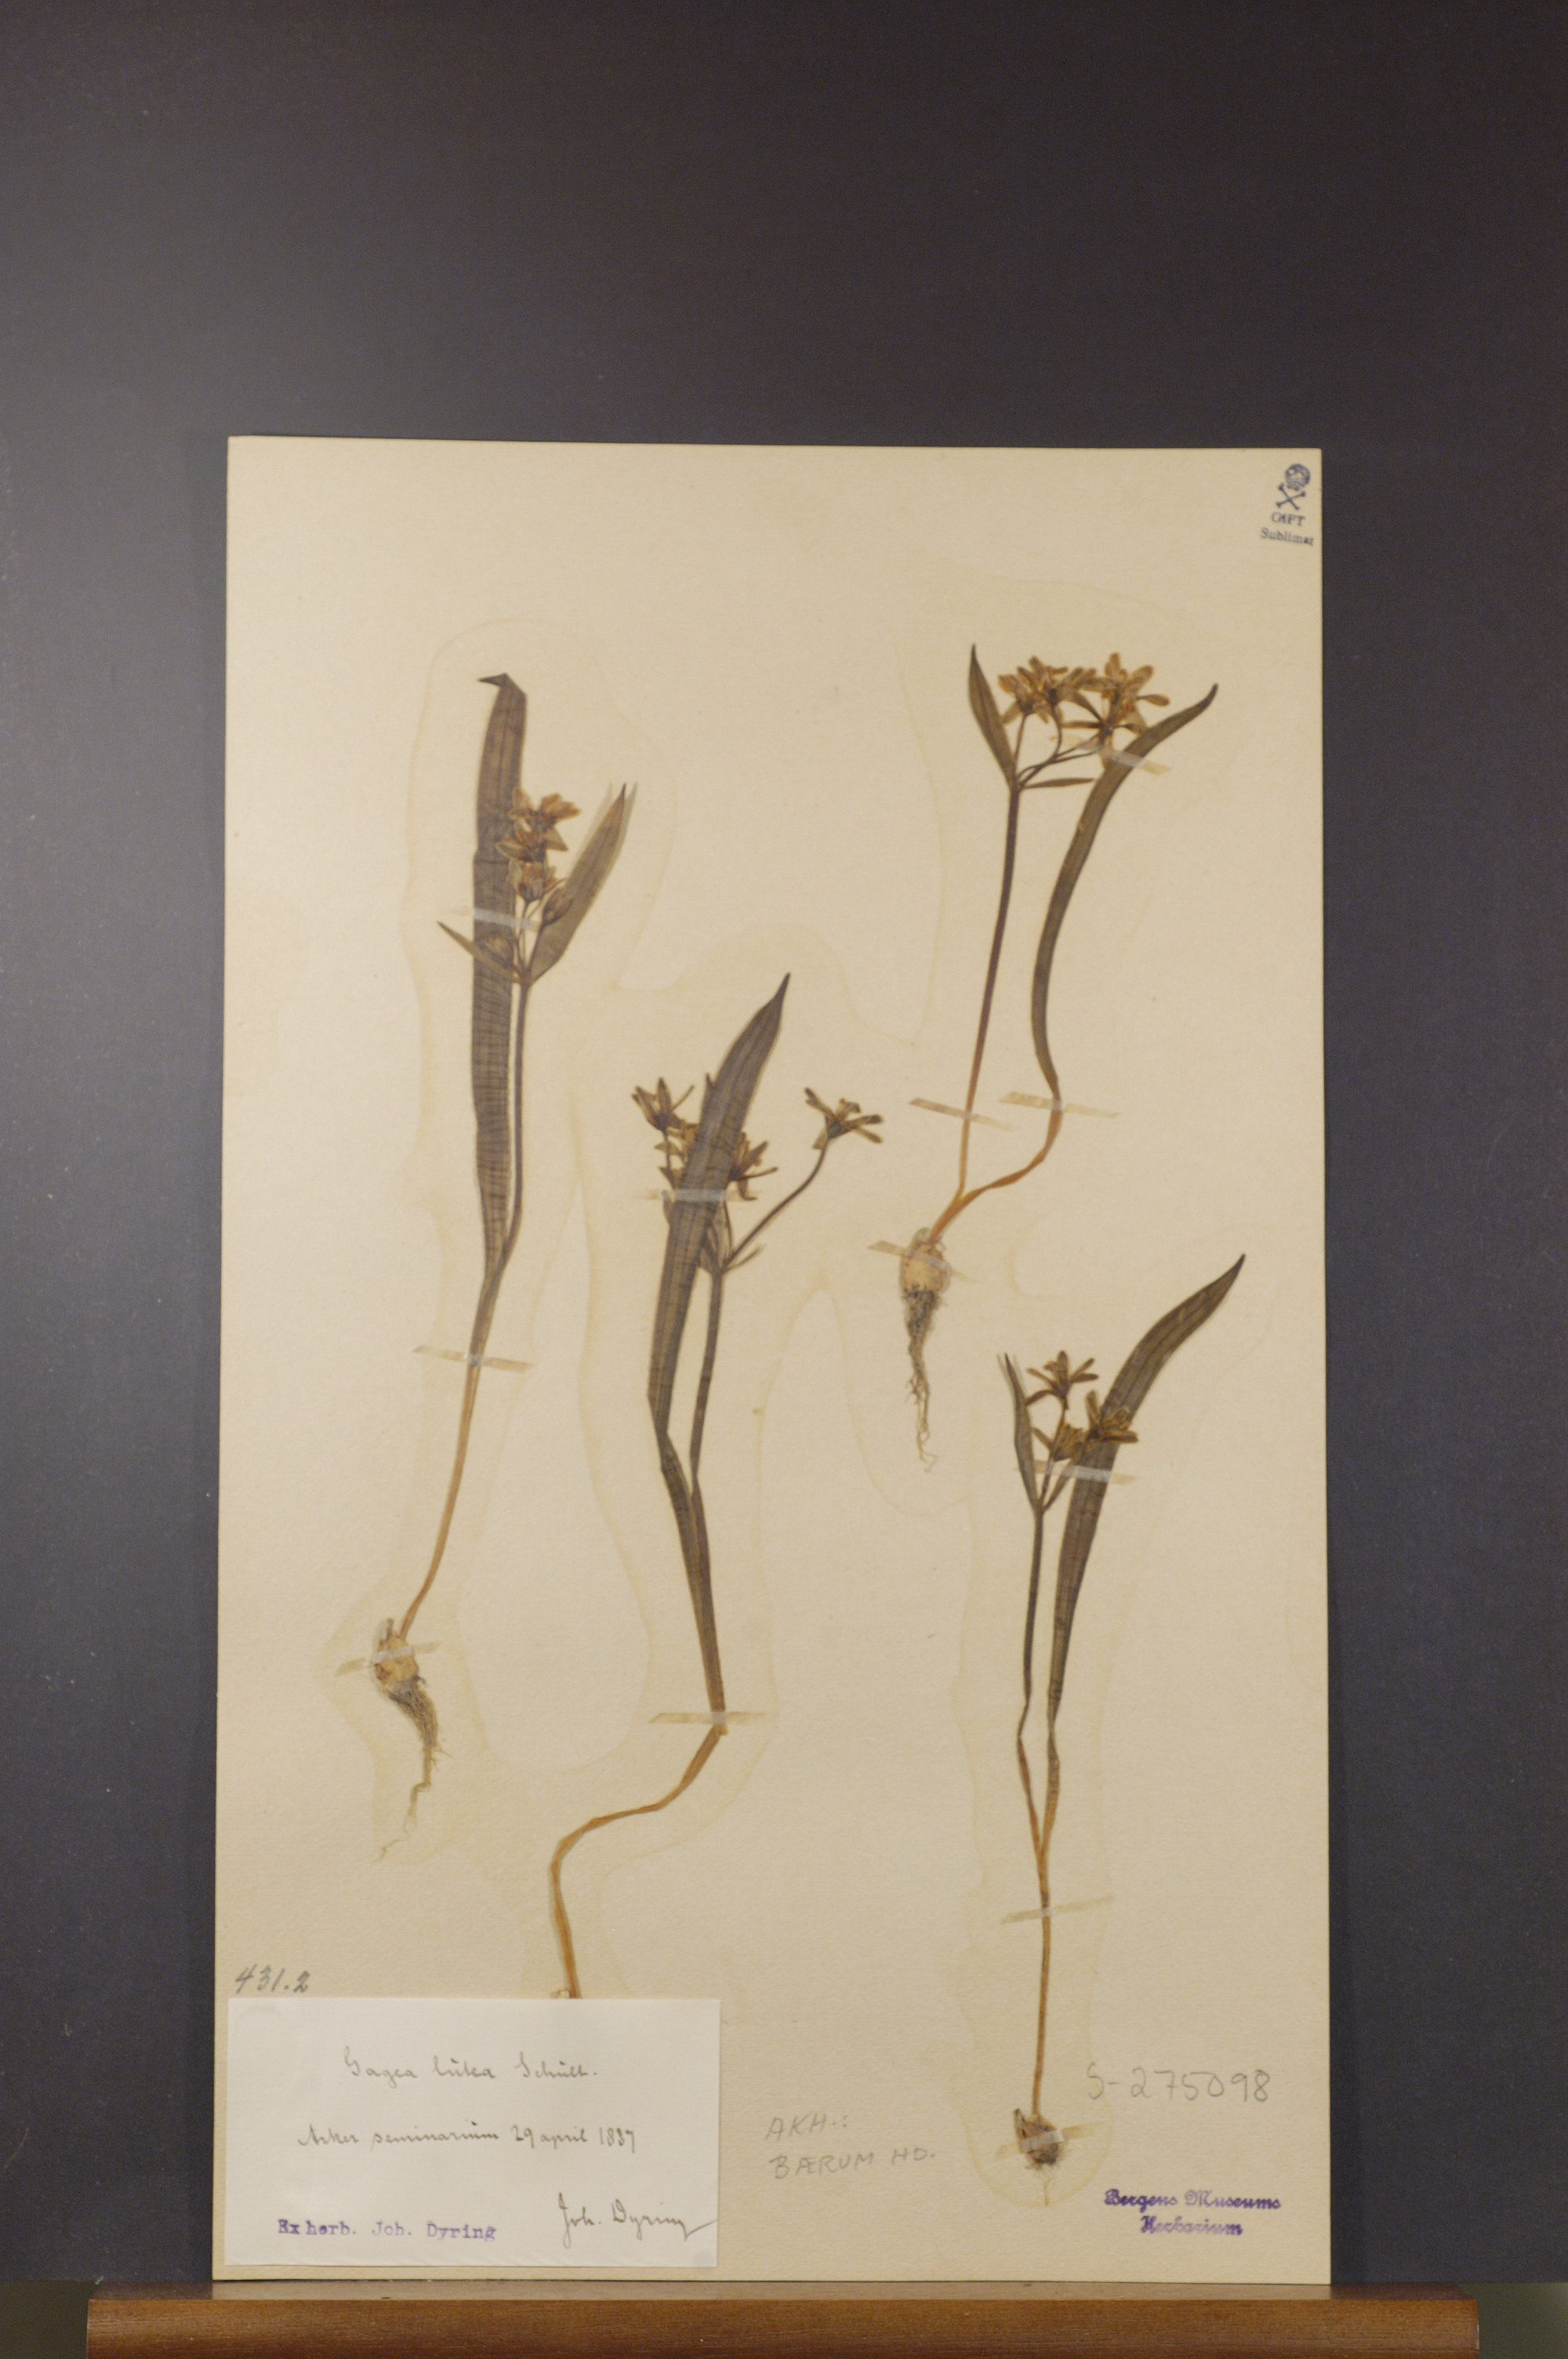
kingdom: Plantae
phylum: Tracheophyta
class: Liliopsida
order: Liliales
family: Liliaceae
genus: Gagea
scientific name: Gagea lutea
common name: Yellow star-of-bethlehem
